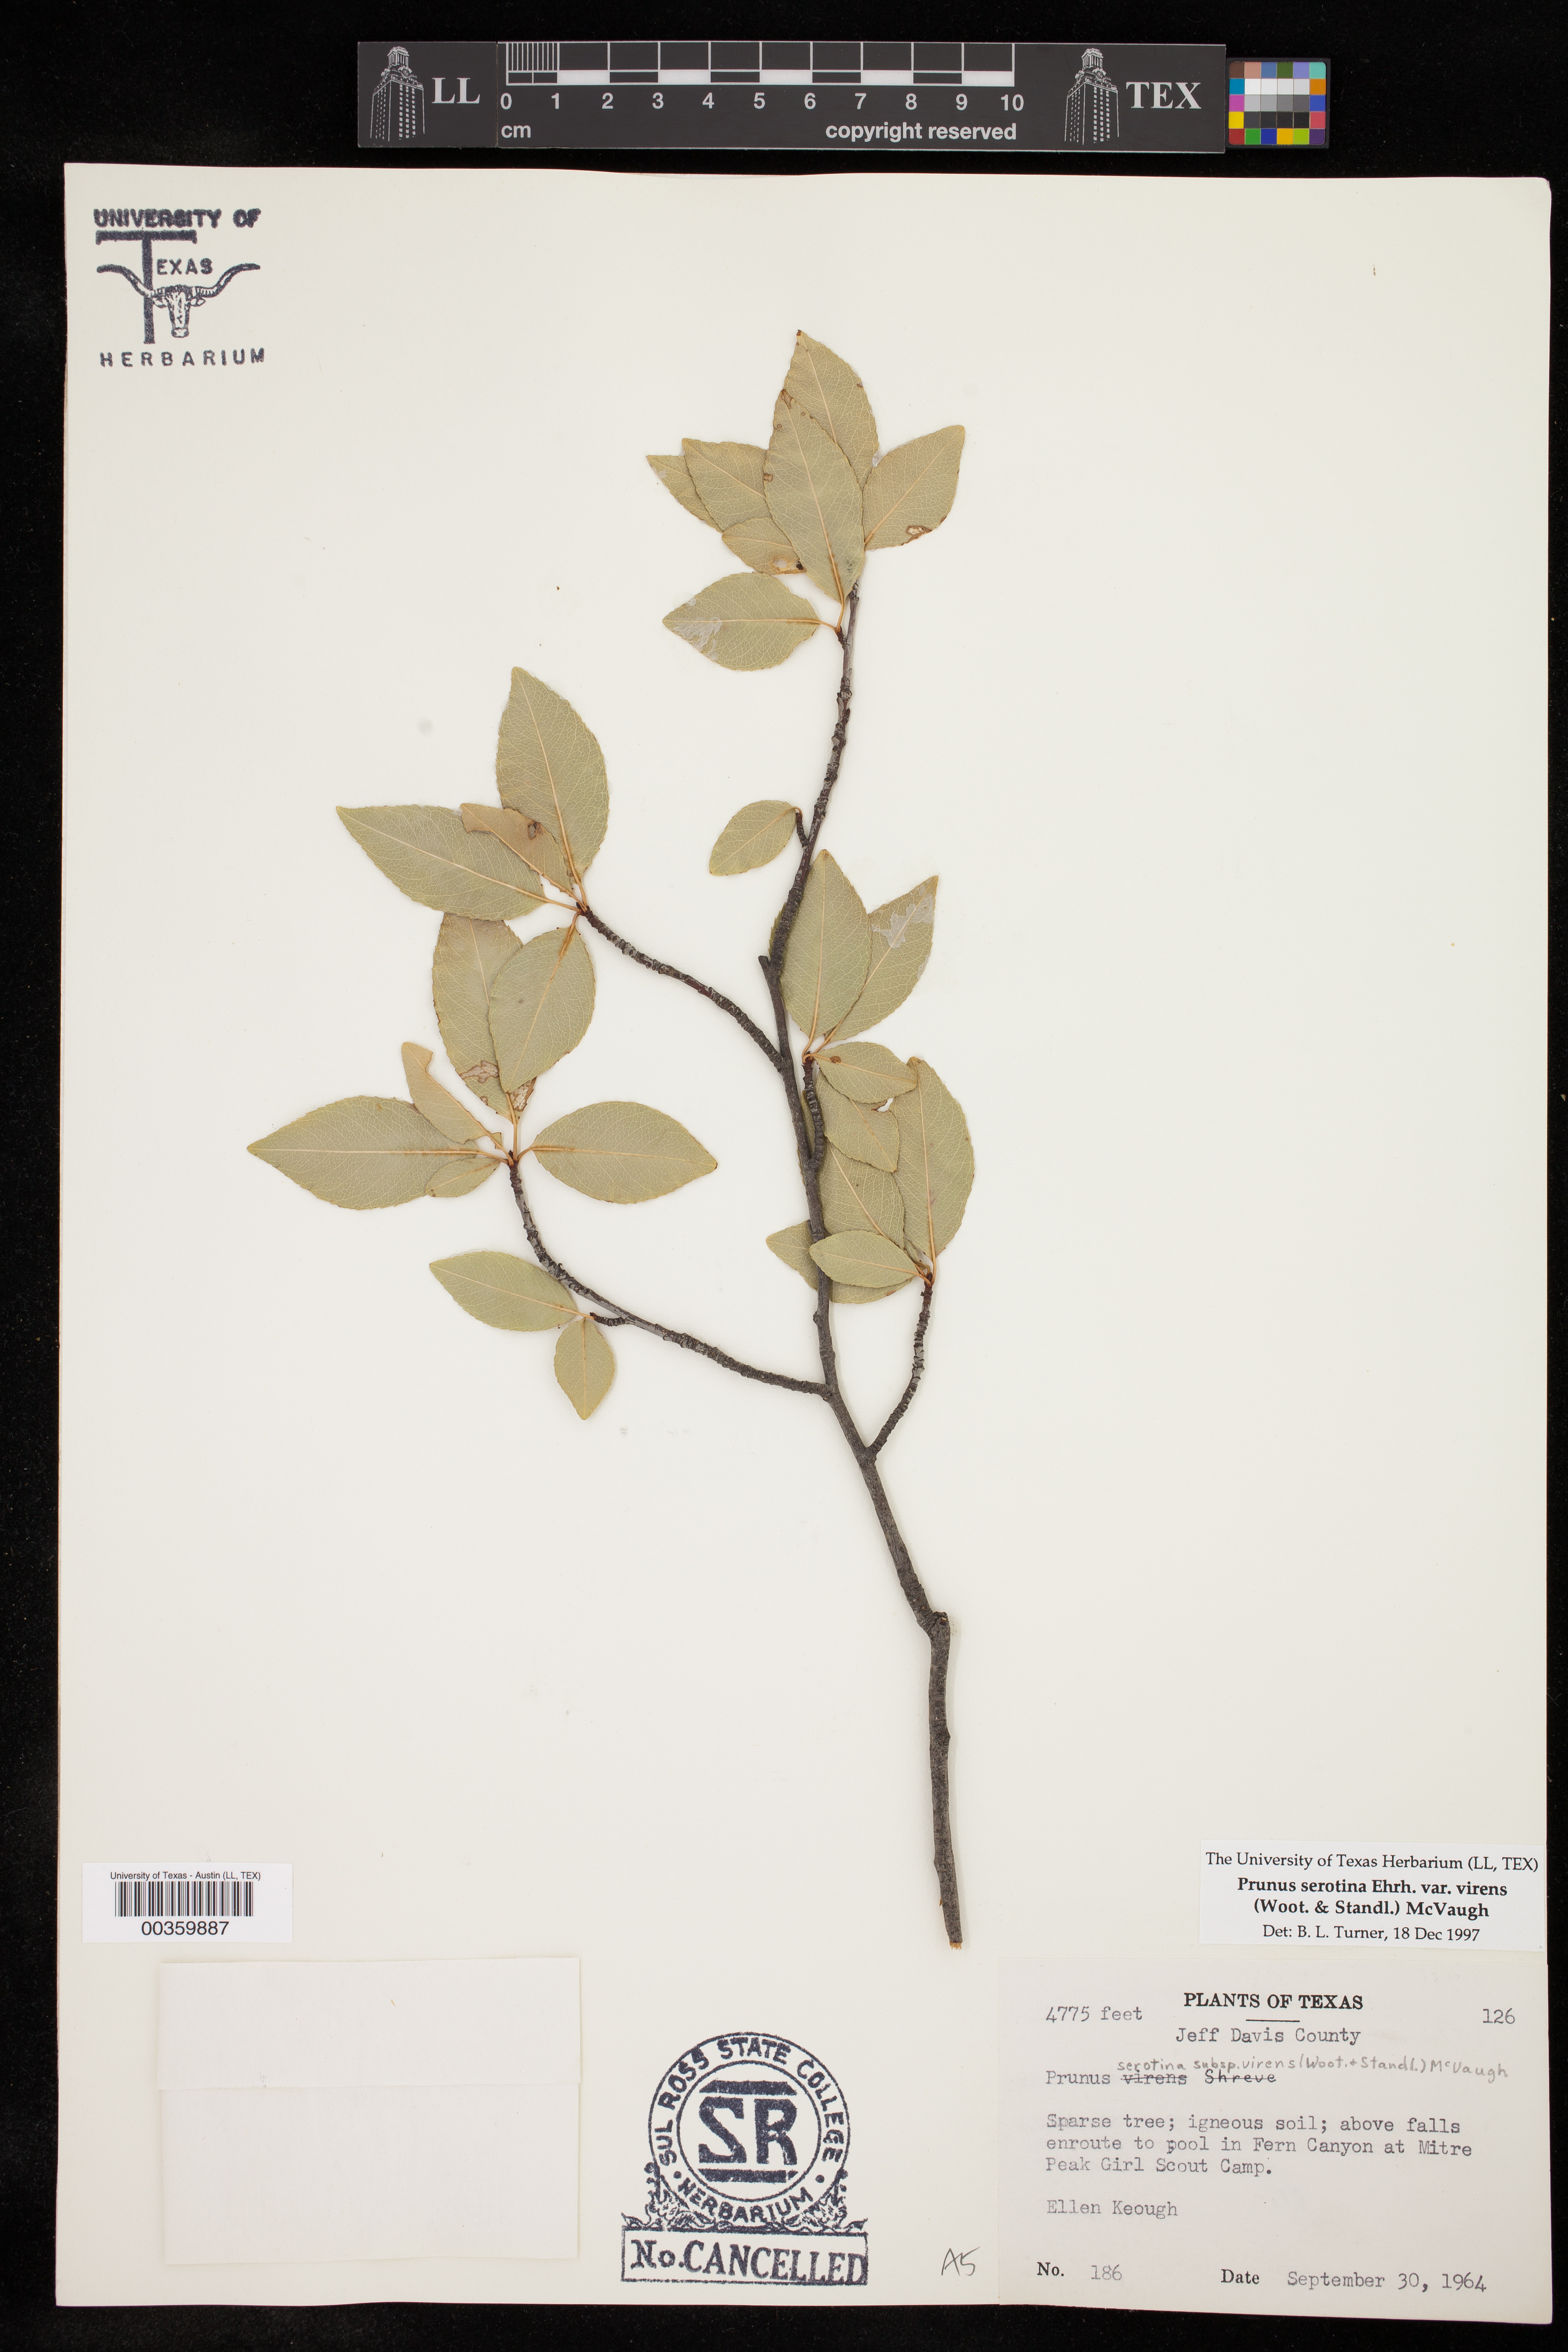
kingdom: Plantae
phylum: Tracheophyta
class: Magnoliopsida
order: Rosales
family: Rosaceae
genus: Prunus
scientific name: Prunus serotina
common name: Black cherry
